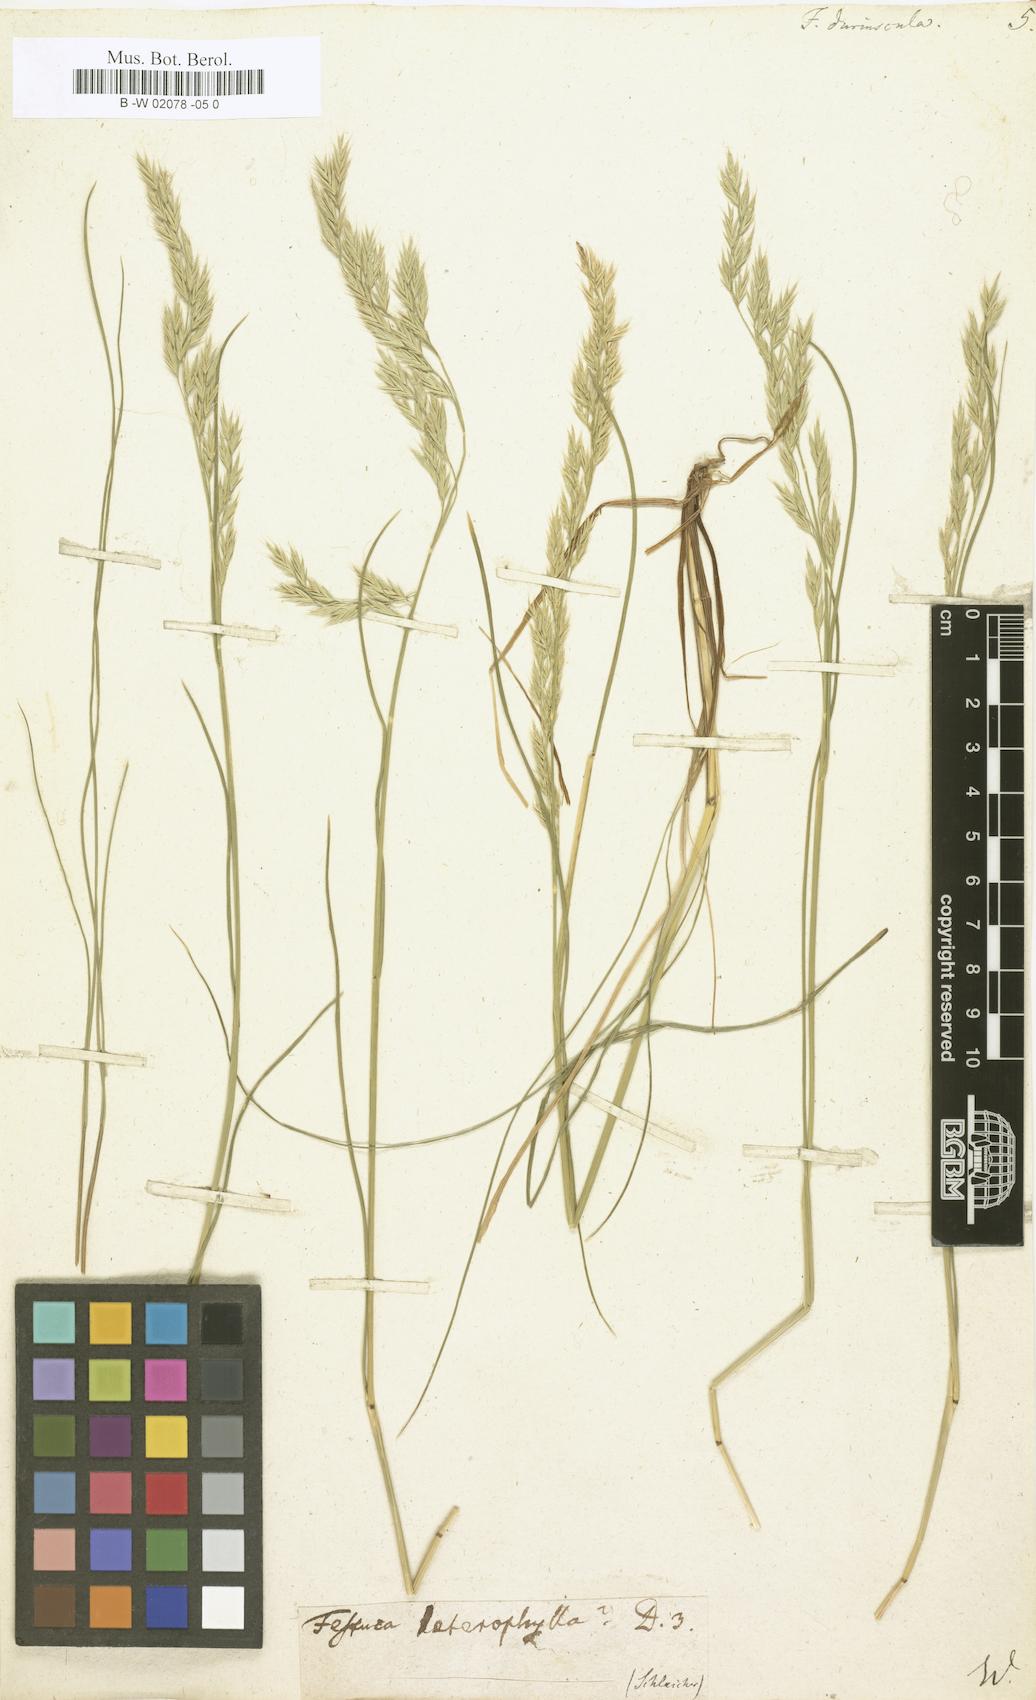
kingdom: Plantae
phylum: Tracheophyta
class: Liliopsida
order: Poales
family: Poaceae
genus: Festuca
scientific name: Festuca
